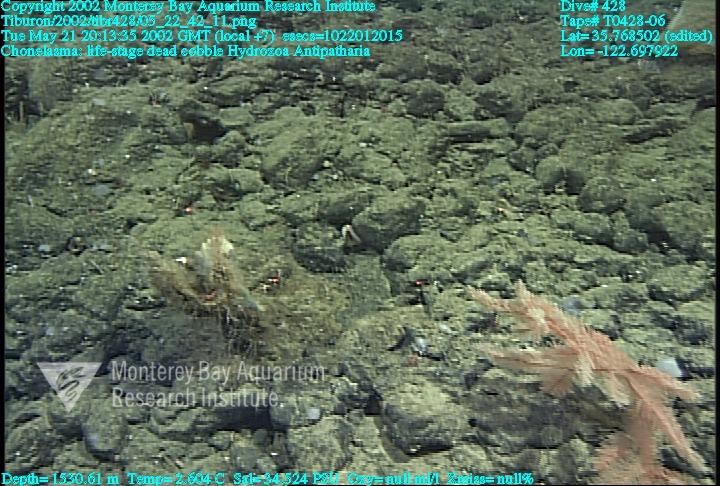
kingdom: Animalia
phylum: Porifera
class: Hexactinellida
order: Sceptrulophora
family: Euretidae
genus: Chonelasma
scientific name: Chonelasma
